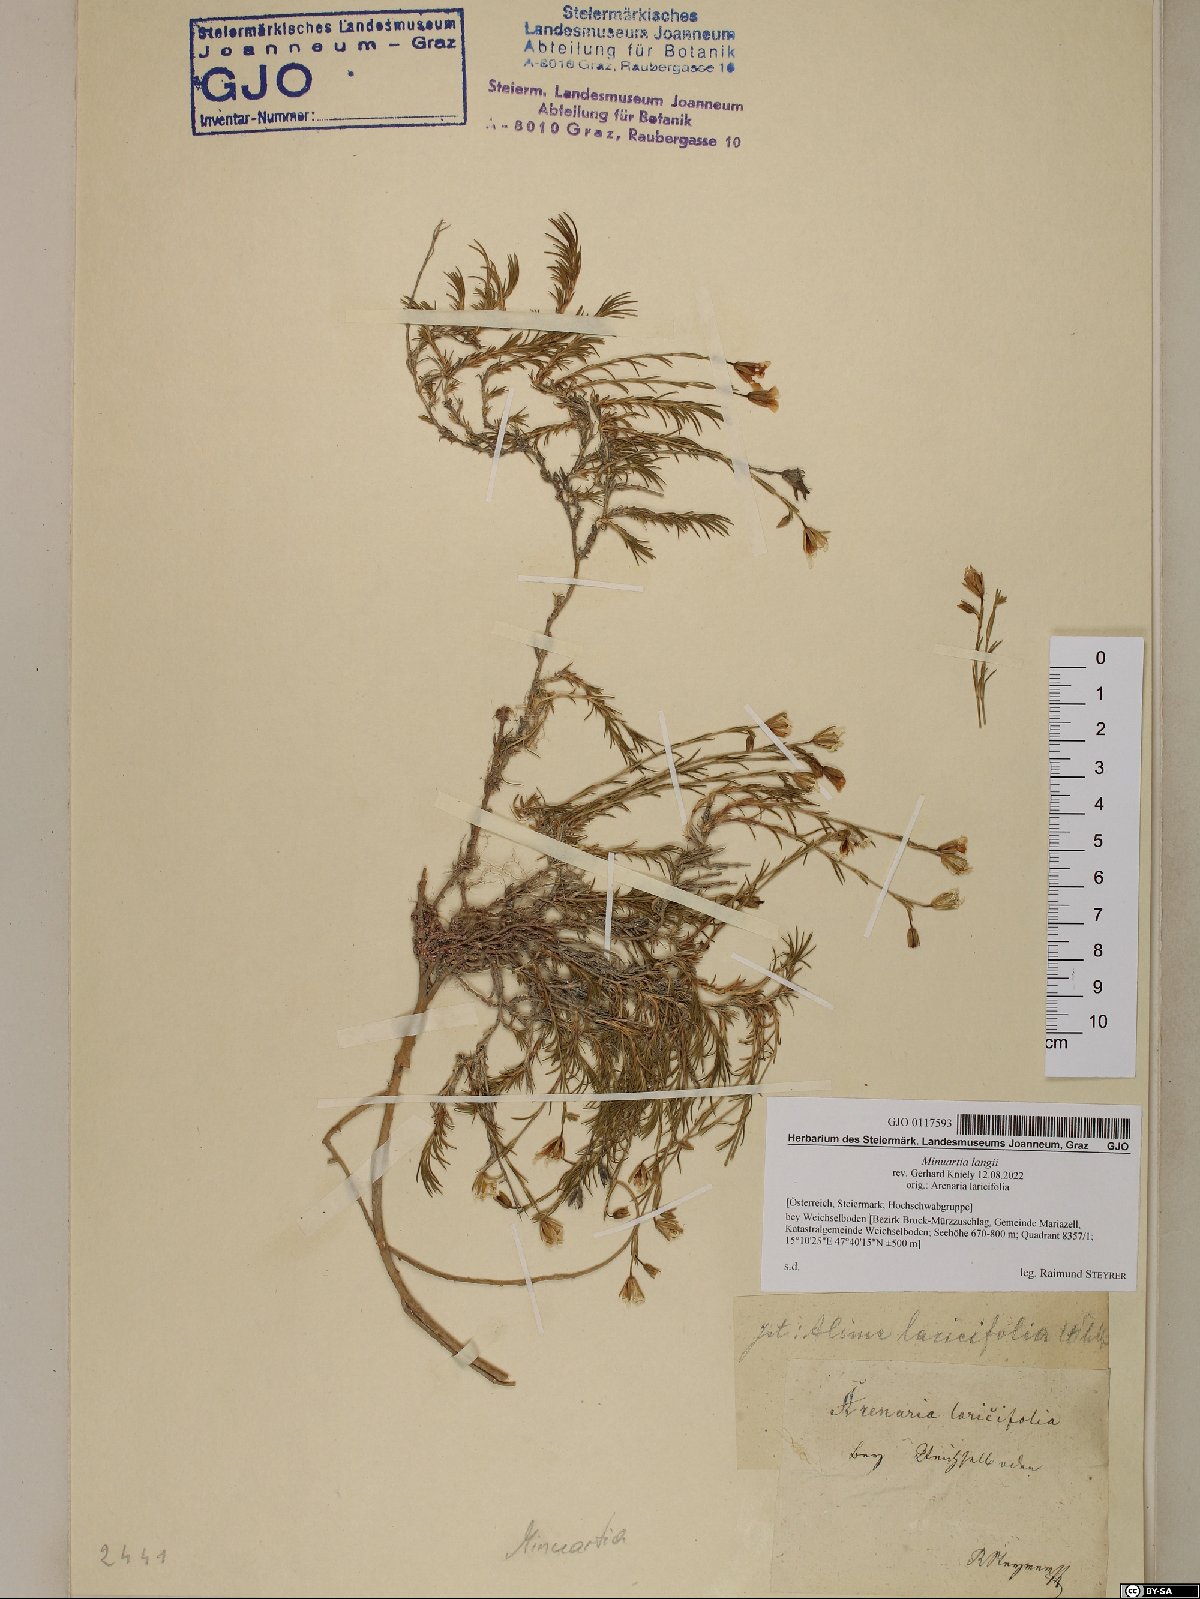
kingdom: Plantae
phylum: Tracheophyta
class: Magnoliopsida
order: Caryophyllales
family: Caryophyllaceae
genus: Cherleria
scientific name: Cherleria langii
